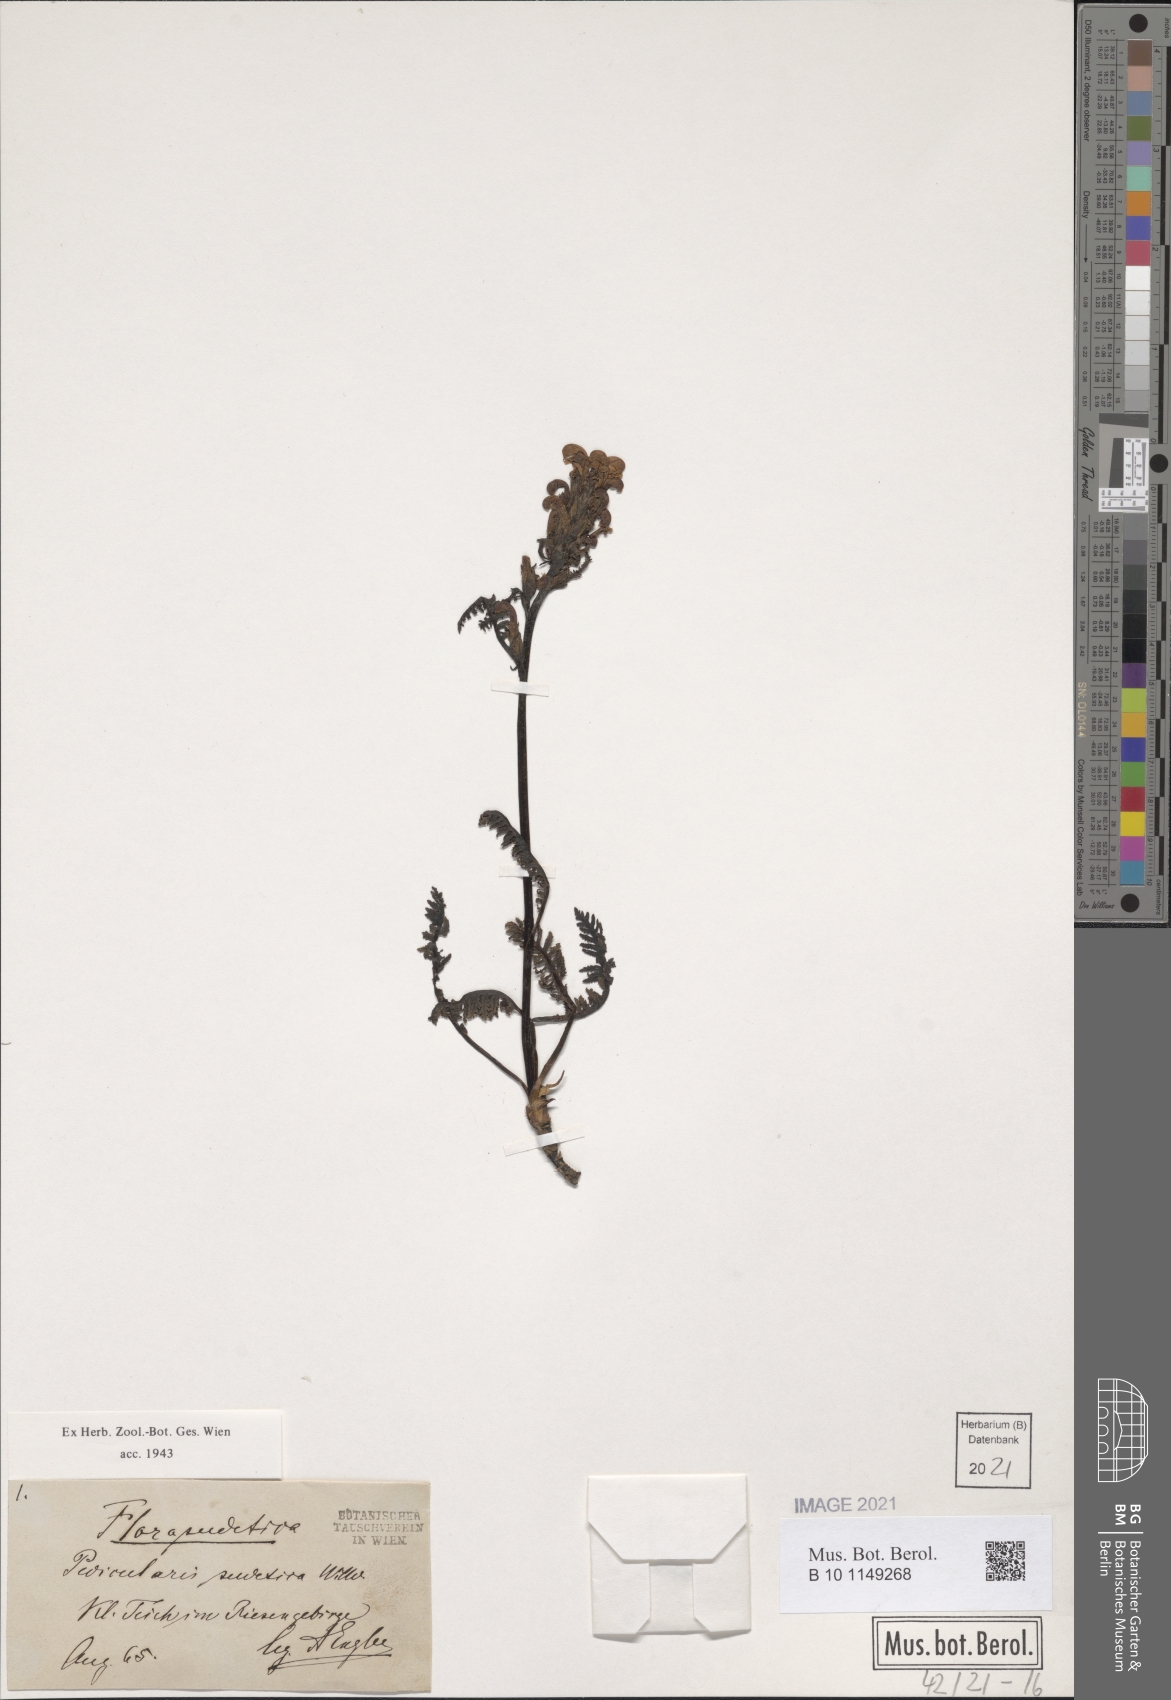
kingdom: Plantae
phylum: Tracheophyta
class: Magnoliopsida
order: Lamiales
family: Orobanchaceae
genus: Pedicularis
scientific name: Pedicularis sudetica
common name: Sudeten lousewort
